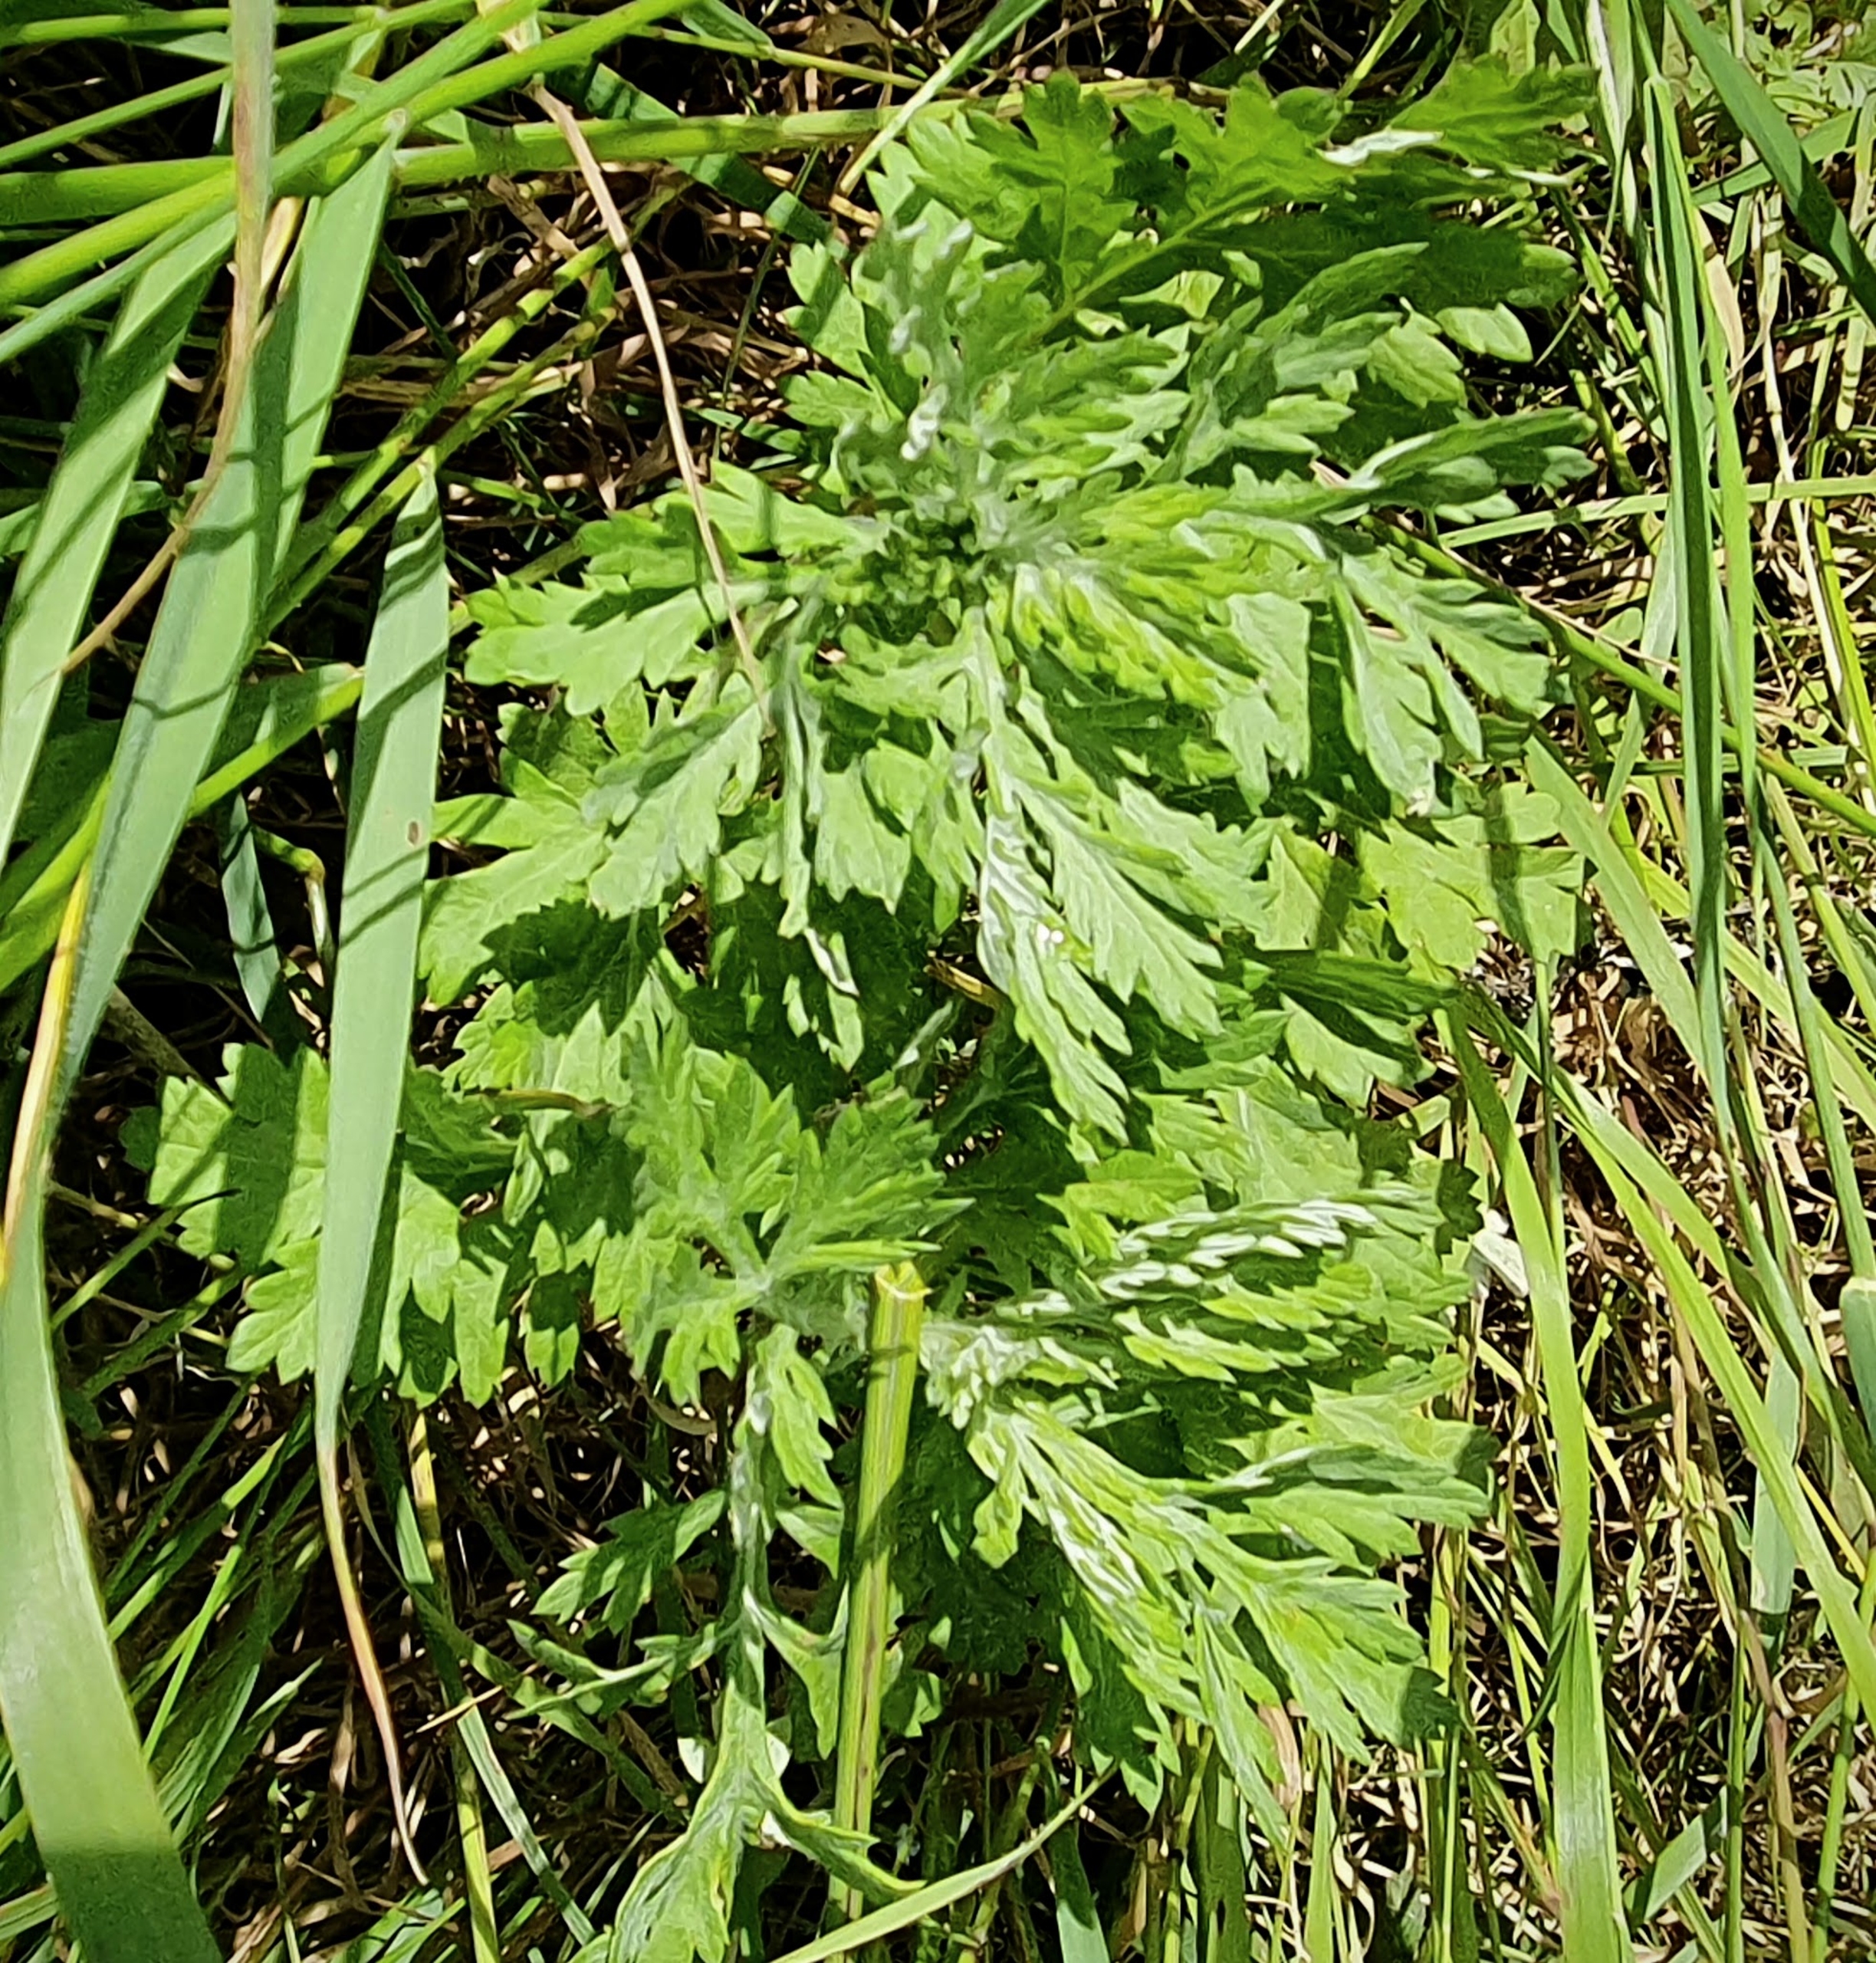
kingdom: Plantae
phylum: Tracheophyta
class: Magnoliopsida
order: Asterales
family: Asteraceae
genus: Artemisia
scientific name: Artemisia vulgaris
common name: Grå-bynke
